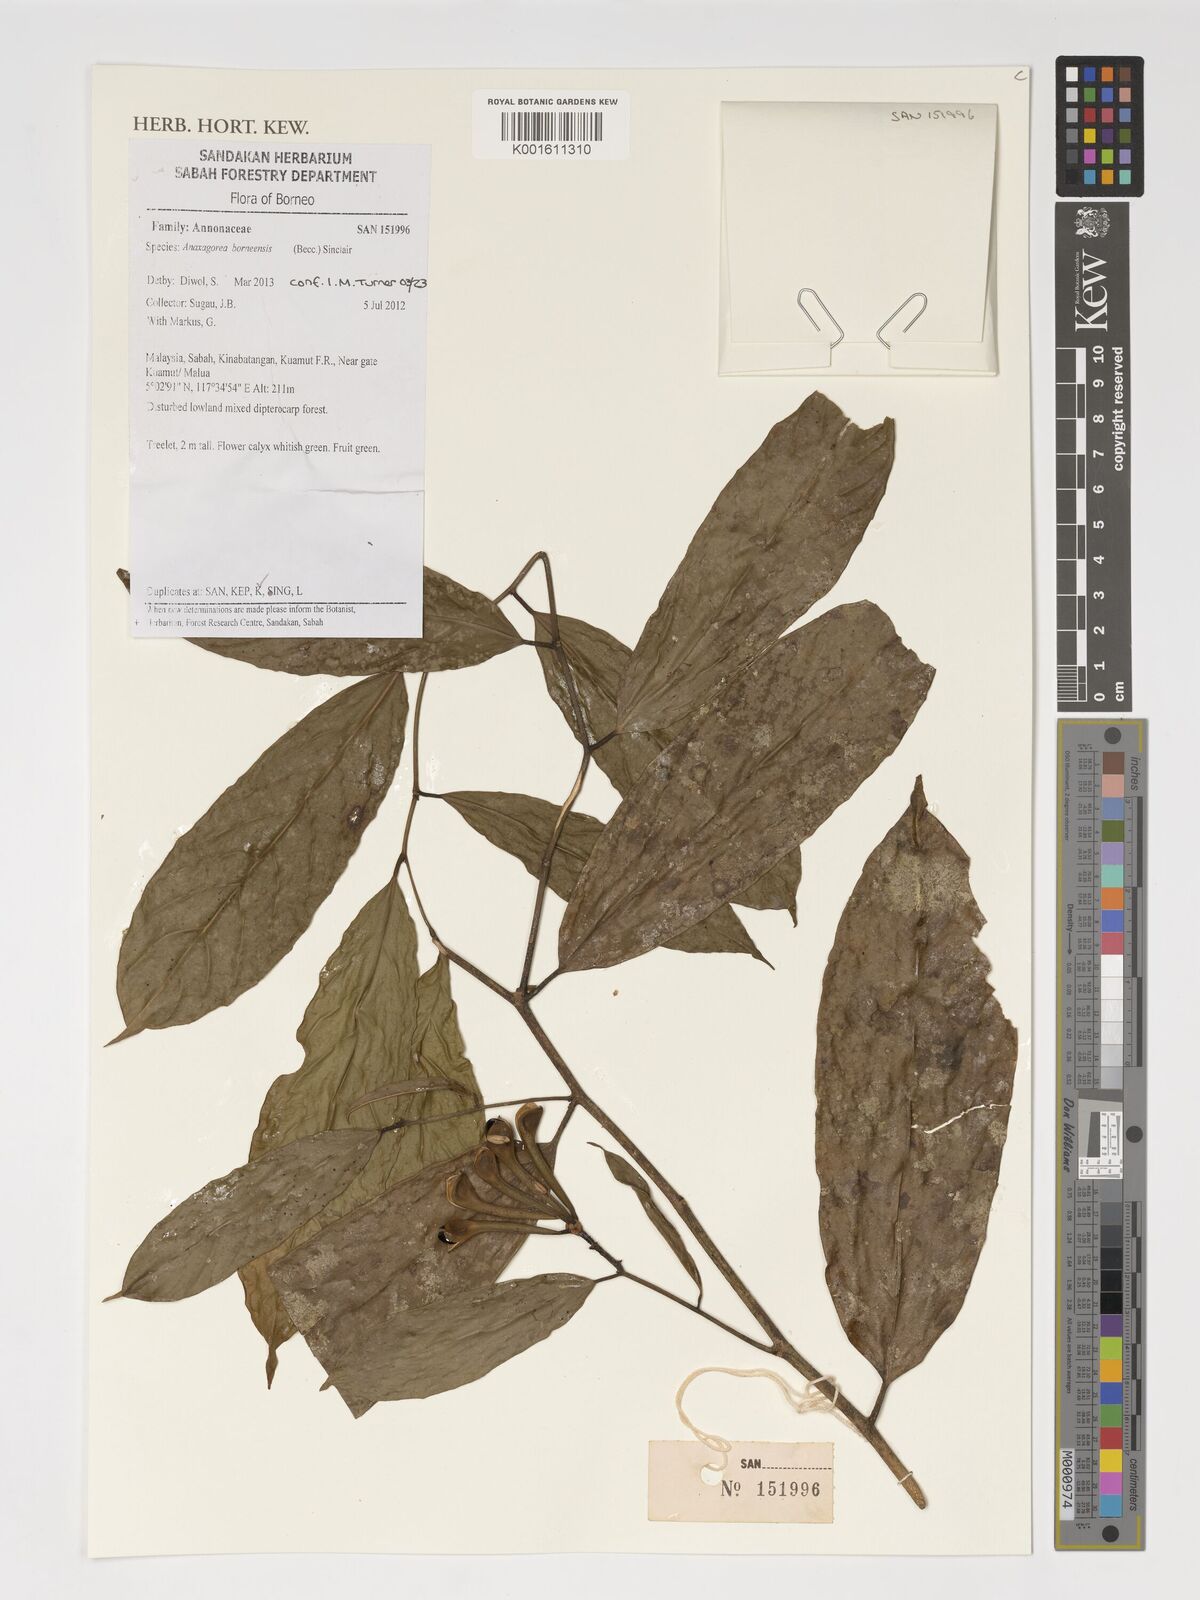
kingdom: Plantae
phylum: Tracheophyta
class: Magnoliopsida
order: Magnoliales
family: Annonaceae
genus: Anaxagorea
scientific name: Anaxagorea borneensis
